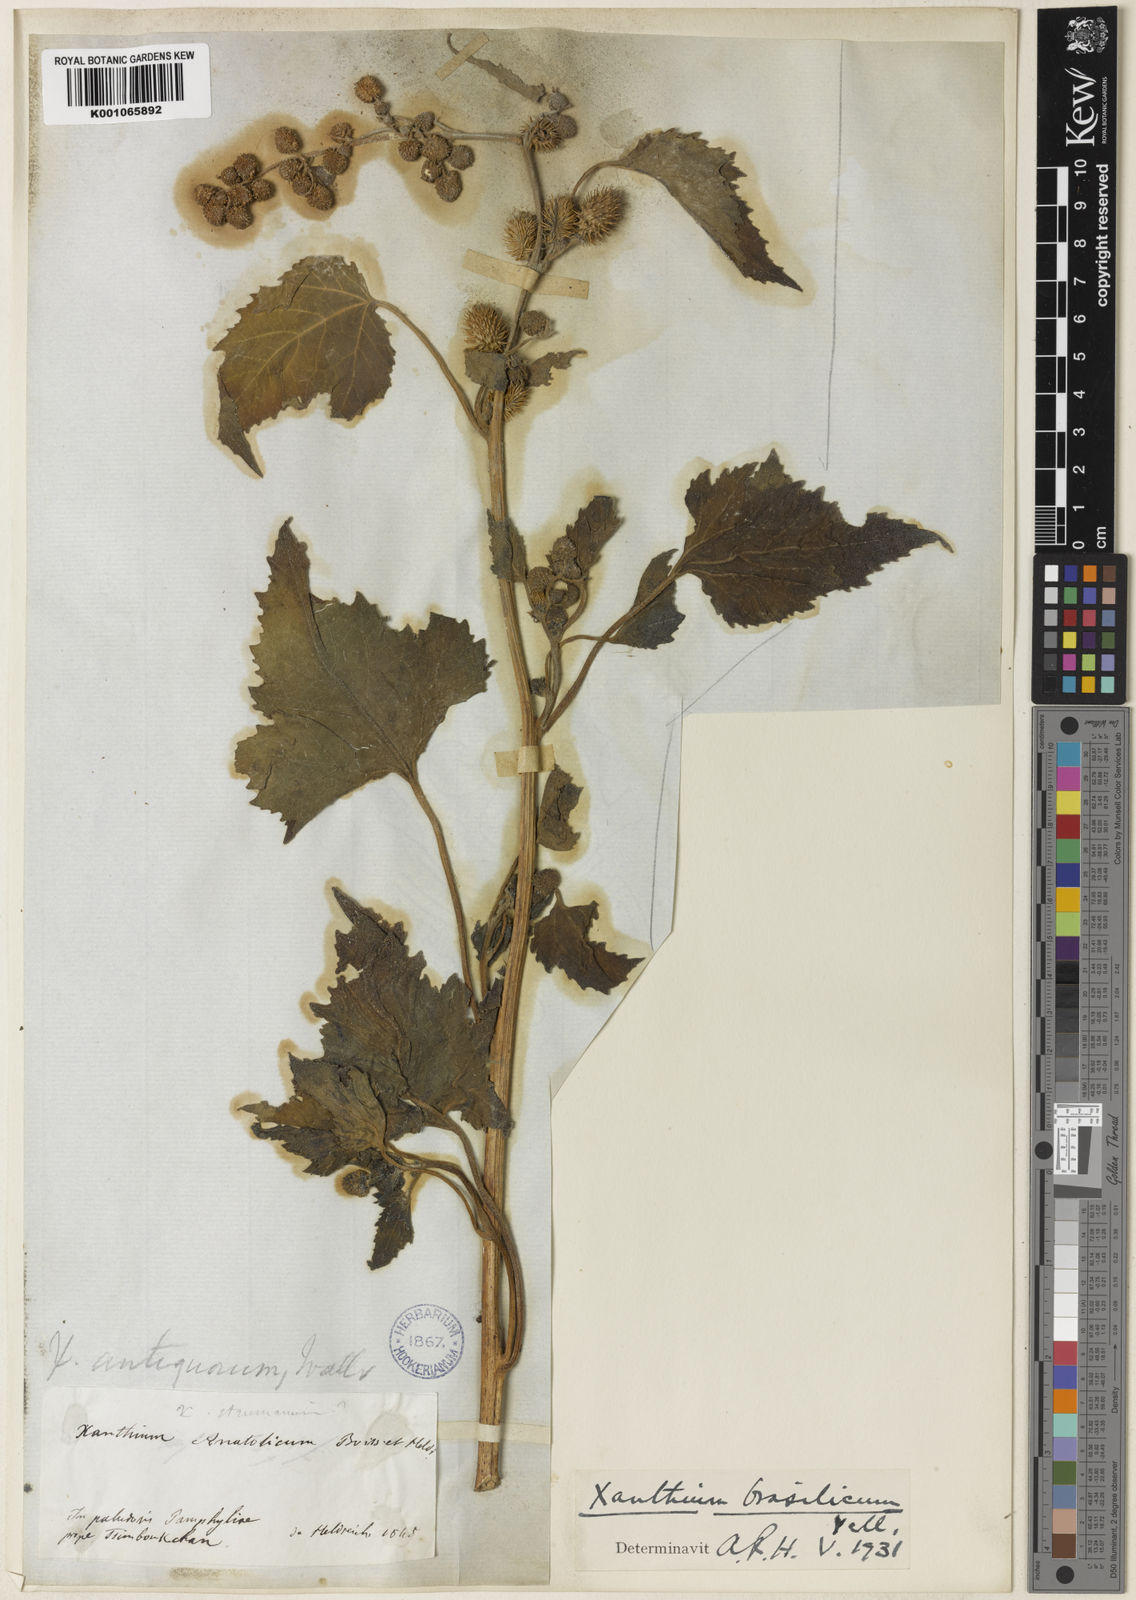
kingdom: Plantae
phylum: Tracheophyta
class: Magnoliopsida
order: Asterales
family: Asteraceae
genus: Xanthium
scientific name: Xanthium strumarium
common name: Rough cocklebur
